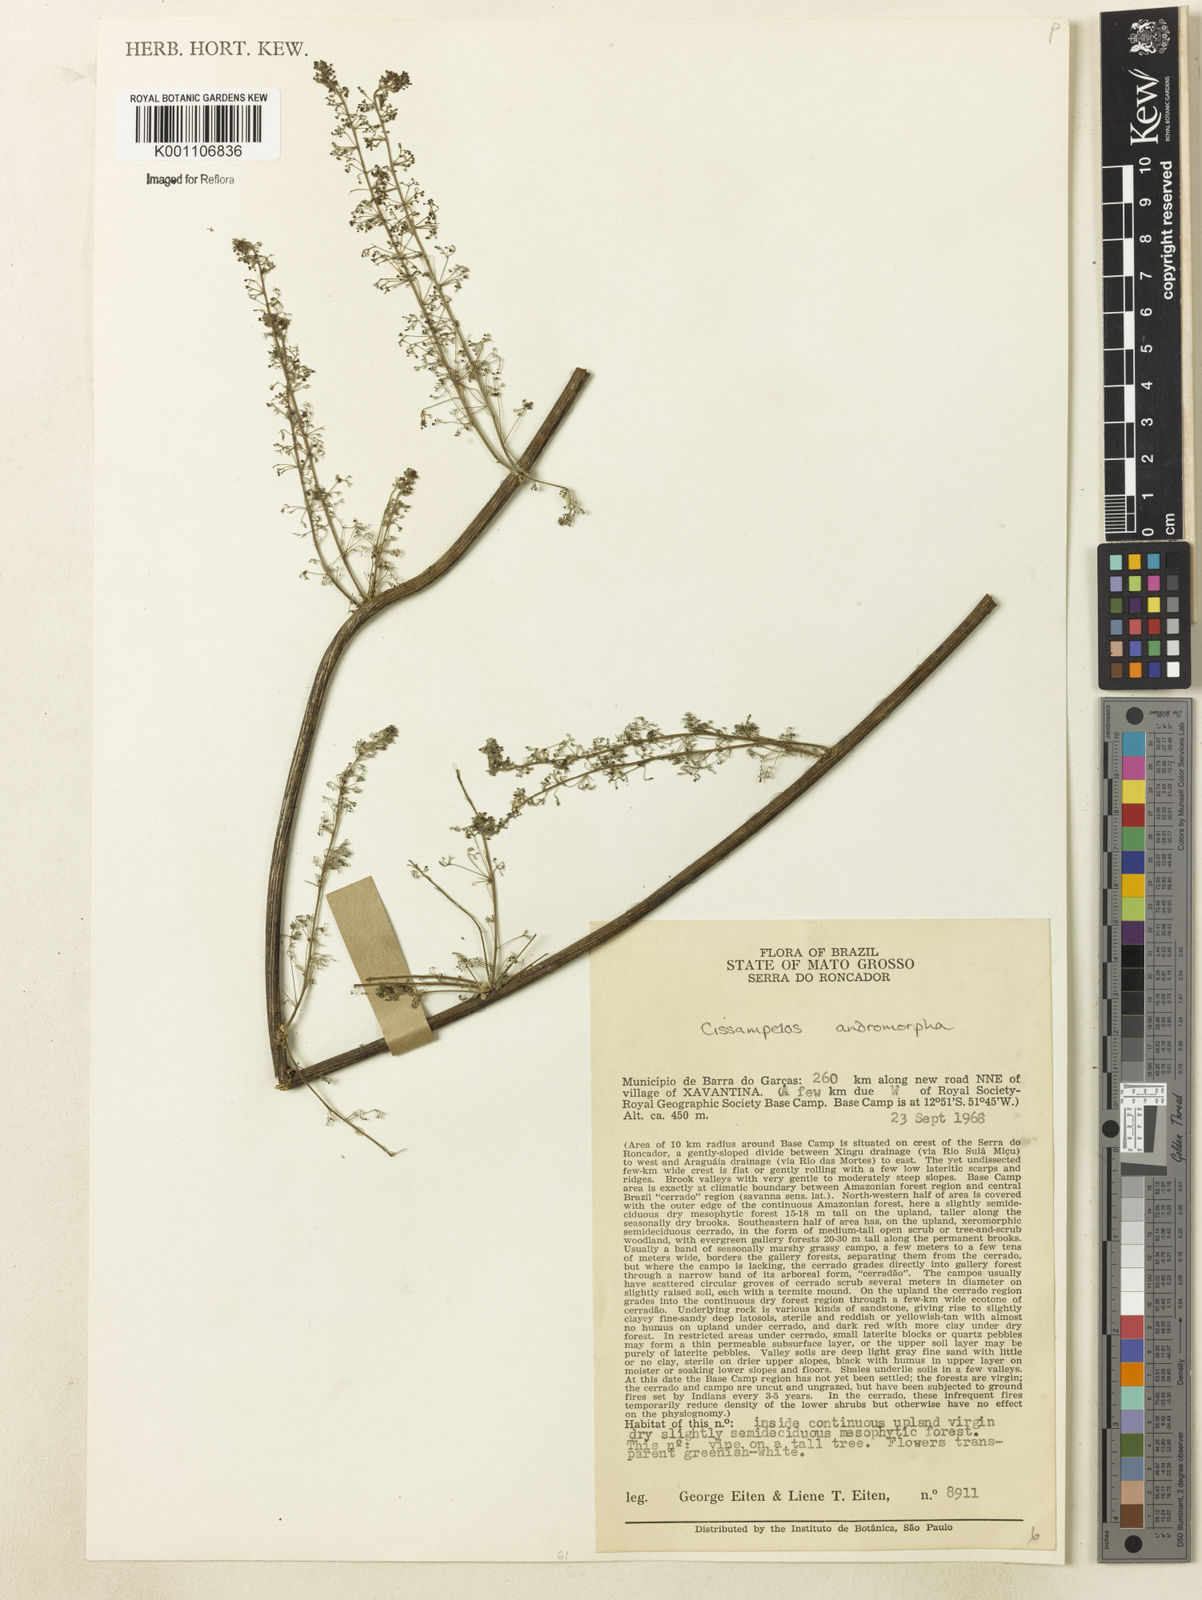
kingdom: Plantae
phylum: Tracheophyta
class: Magnoliopsida
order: Ranunculales
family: Menispermaceae
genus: Cissampelos
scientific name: Cissampelos andromorpha
